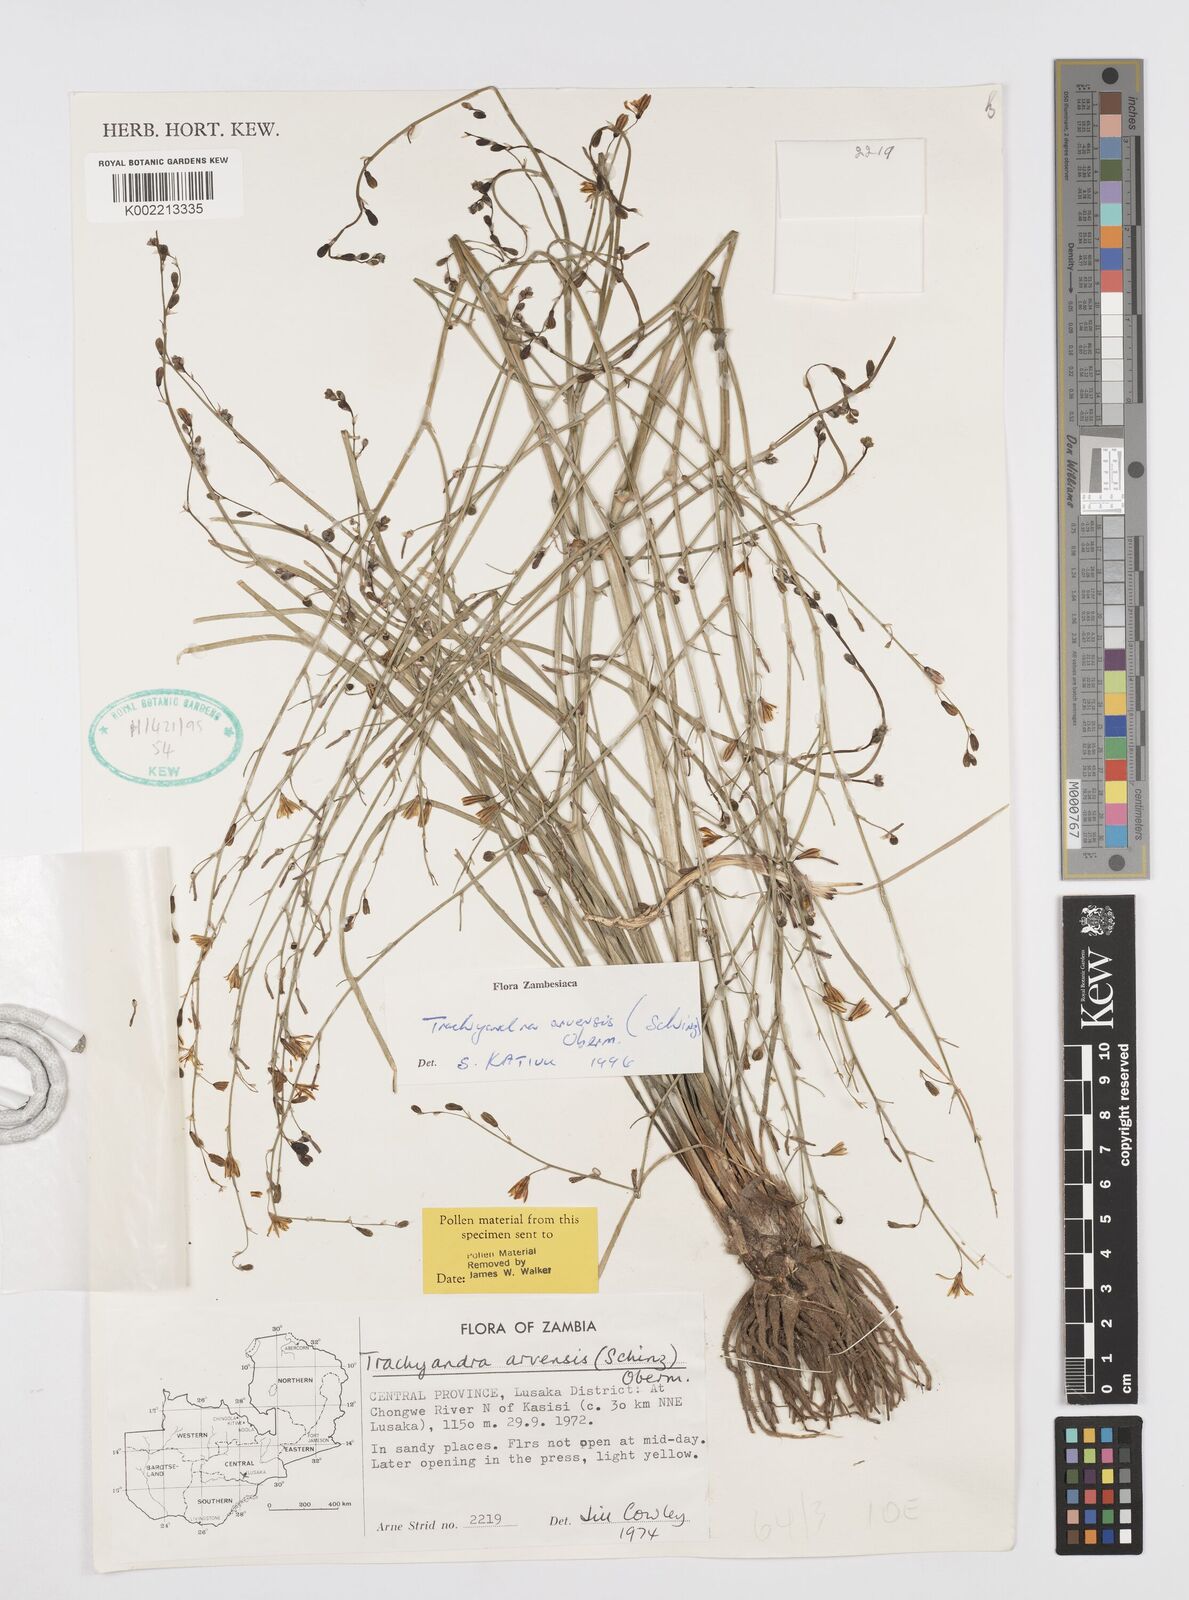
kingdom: Plantae
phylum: Tracheophyta
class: Liliopsida
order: Asparagales
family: Asphodelaceae
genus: Trachyandra
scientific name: Trachyandra arvensis
